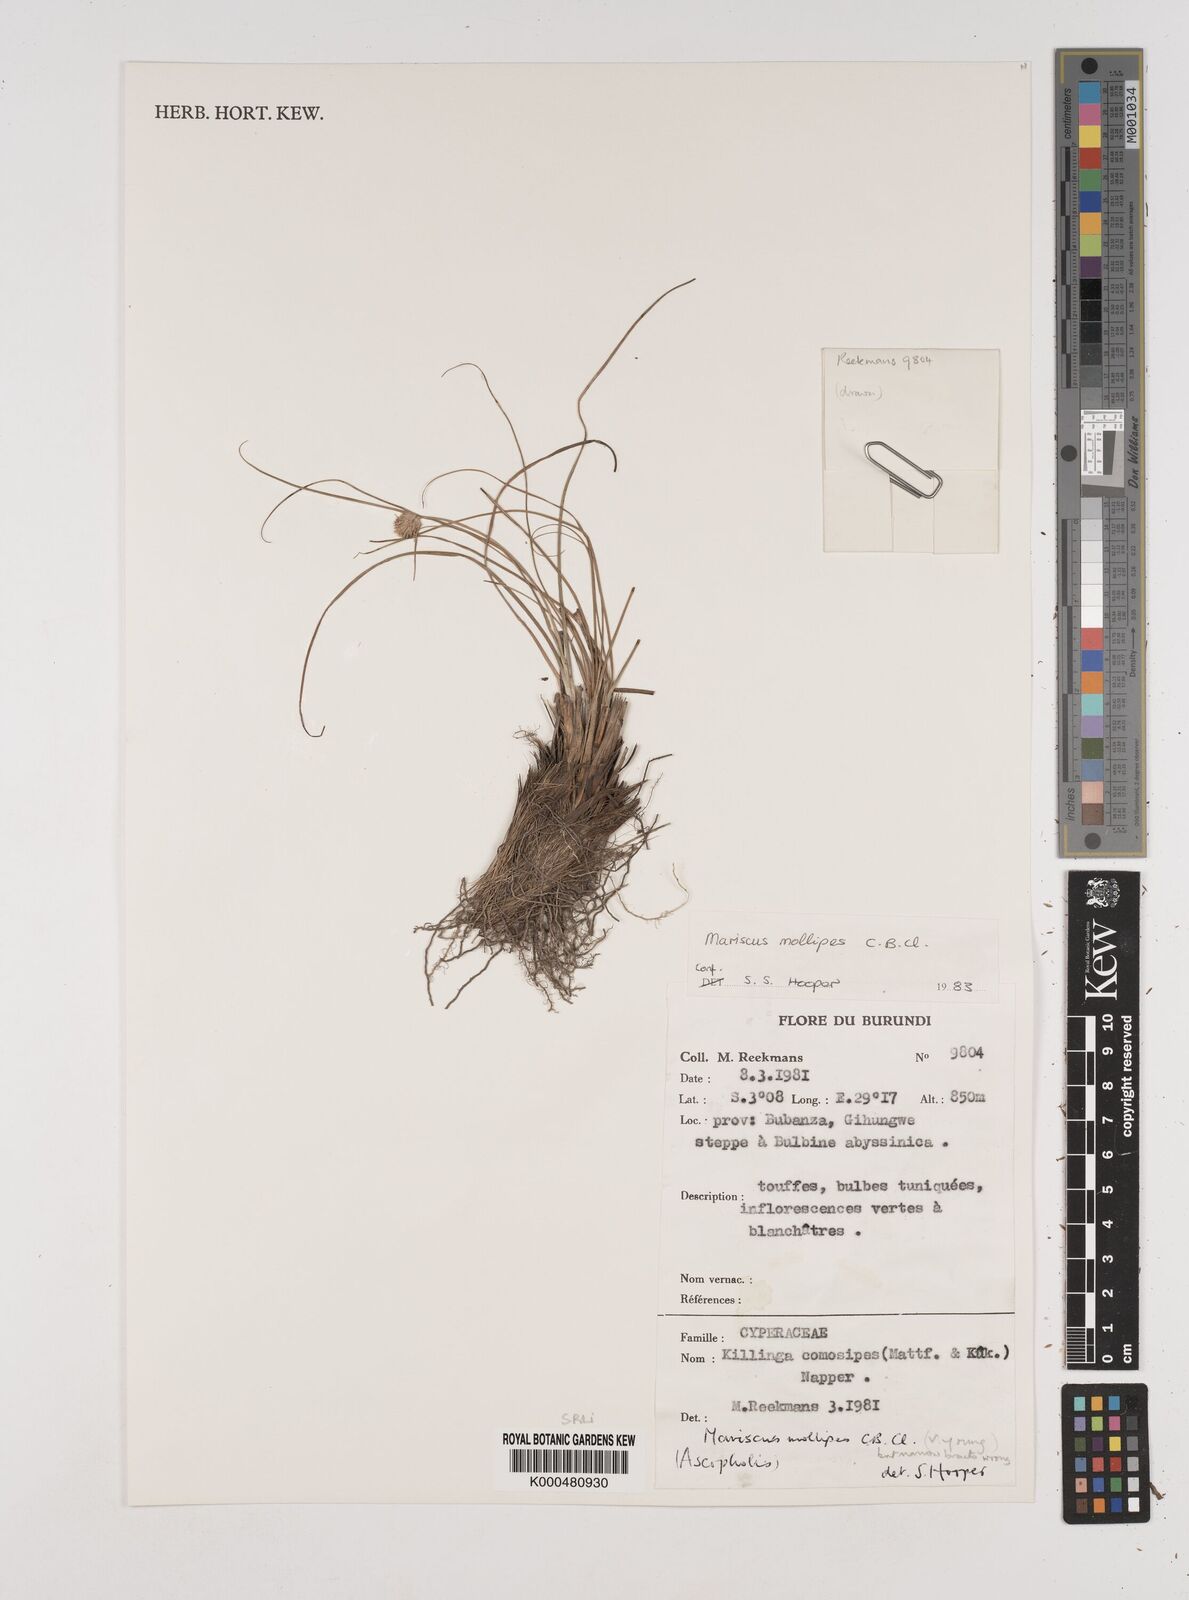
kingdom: Plantae
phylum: Tracheophyta
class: Liliopsida
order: Poales
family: Cyperaceae
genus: Cyperus
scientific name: Cyperus mollipes
